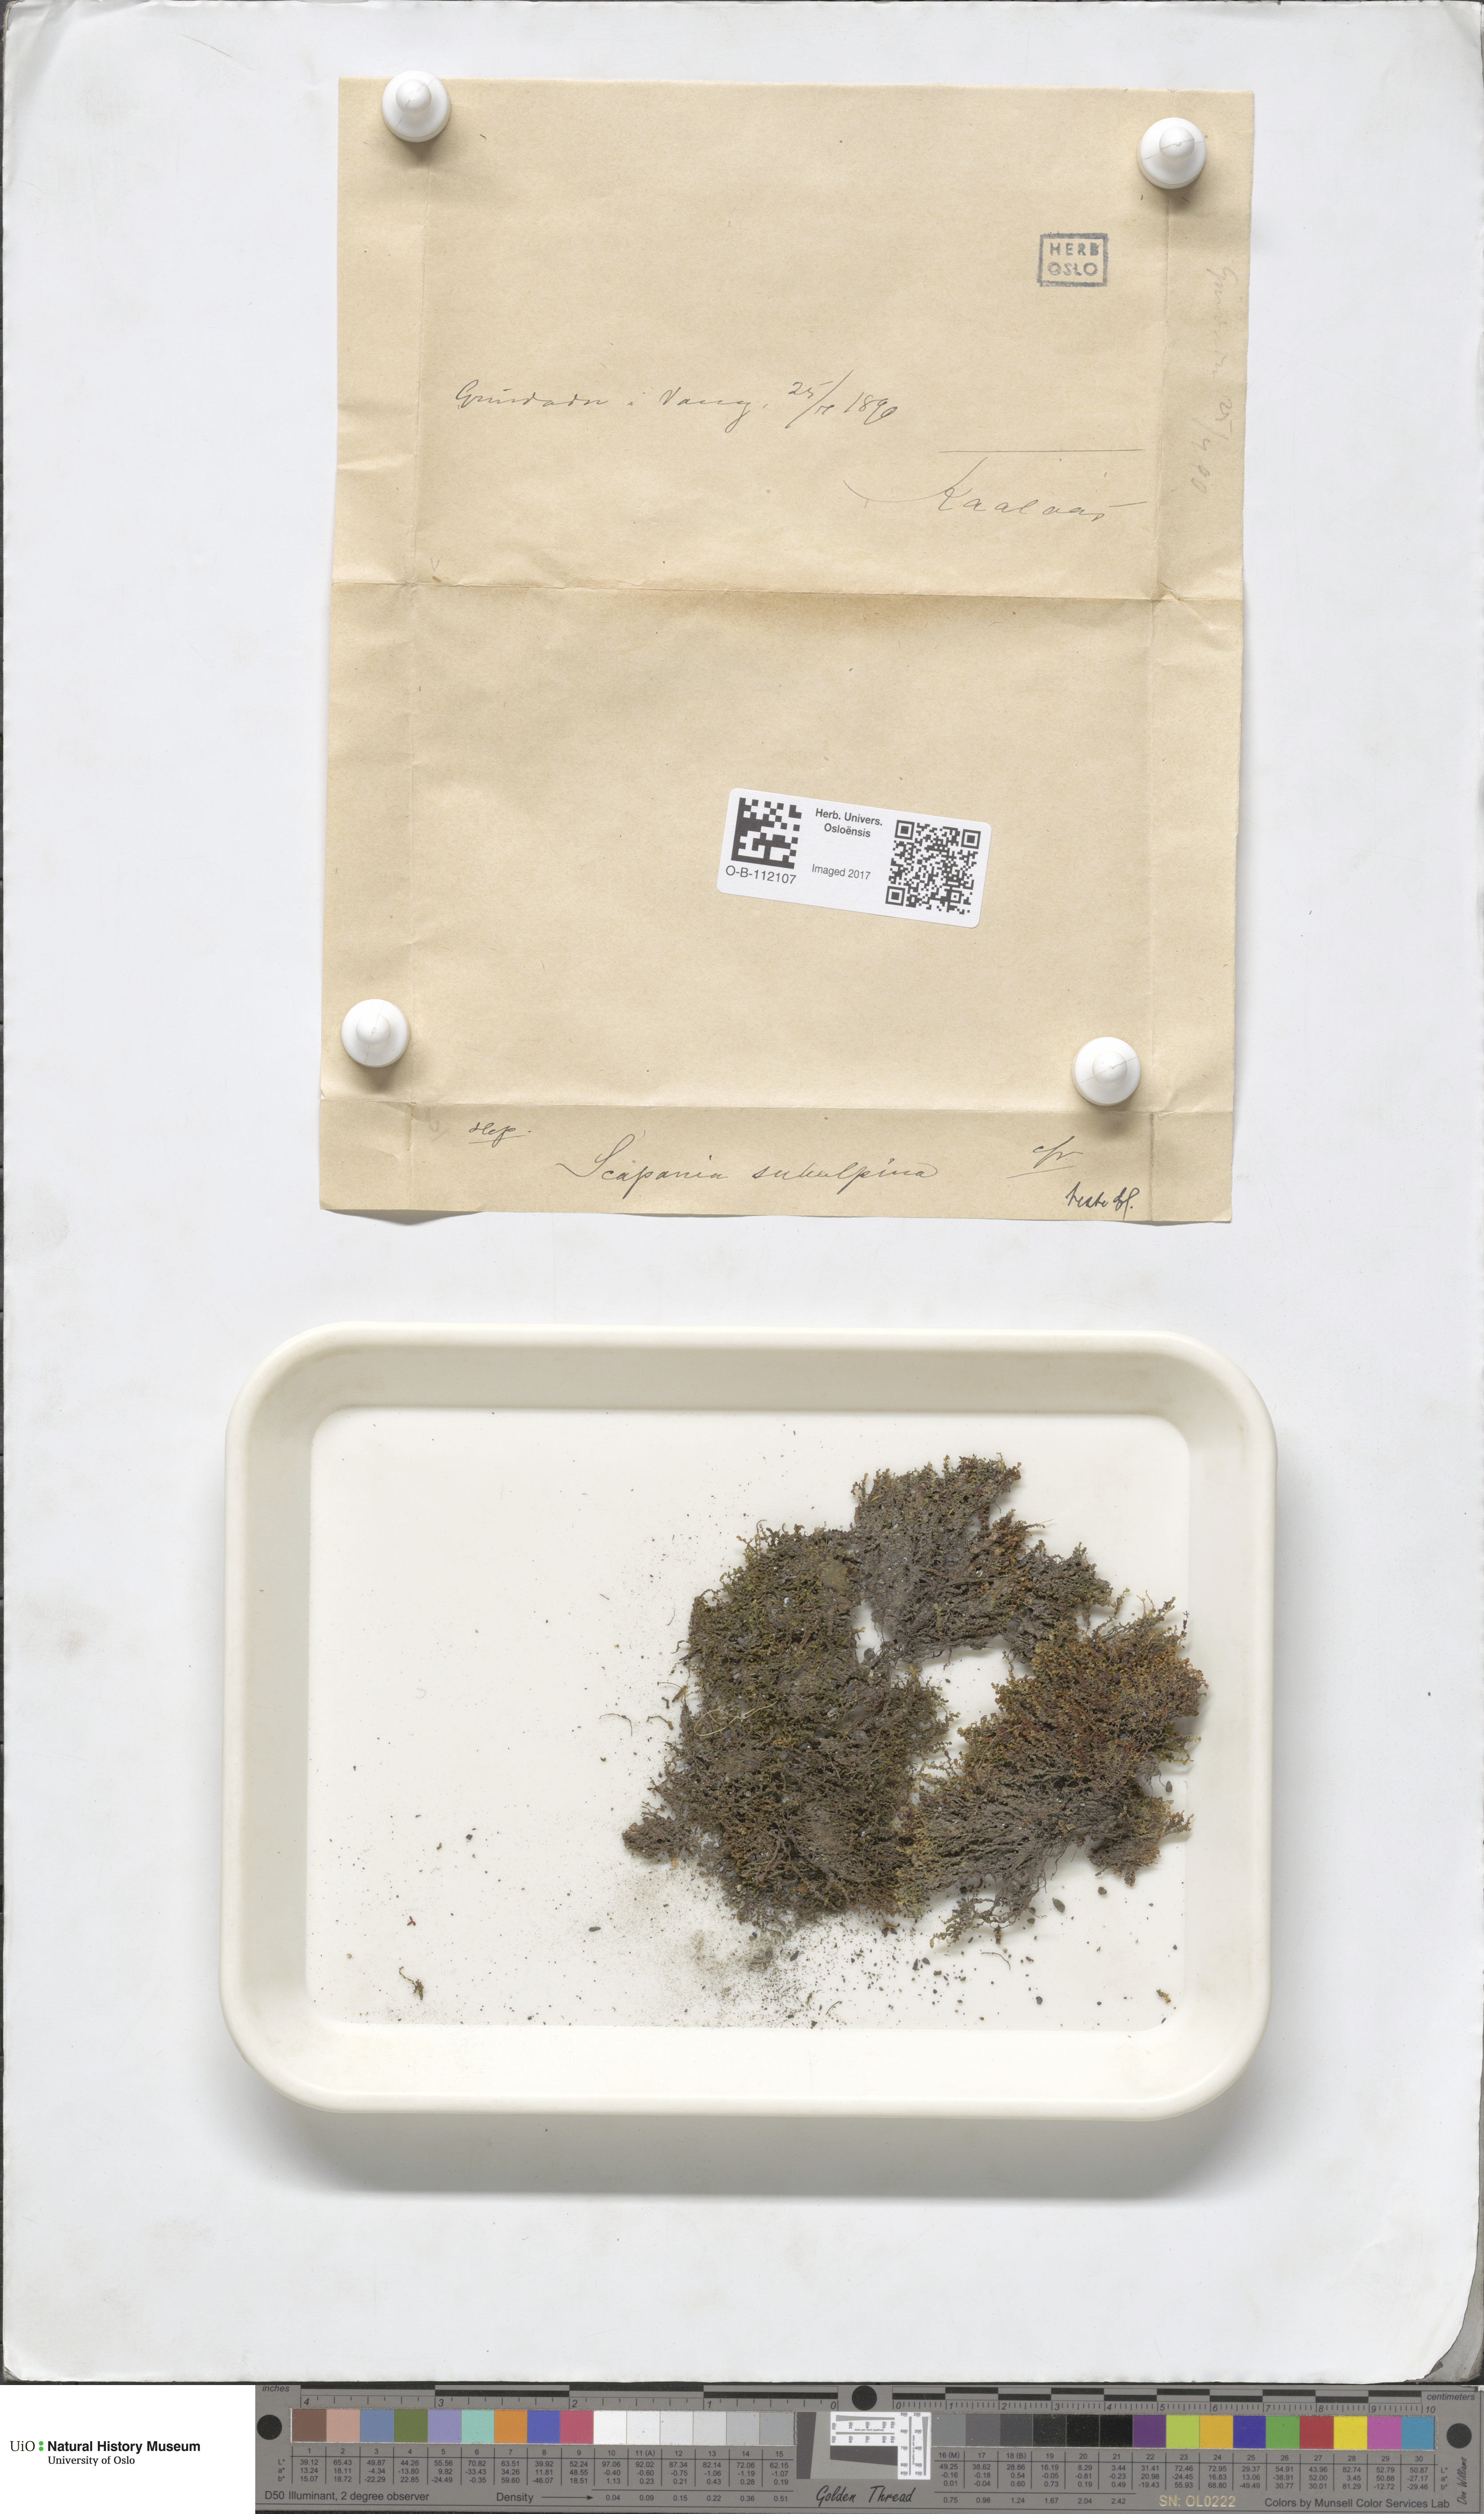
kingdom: Plantae
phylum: Marchantiophyta
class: Jungermanniopsida
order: Jungermanniales
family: Scapaniaceae
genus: Scapania
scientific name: Scapania subalpina
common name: Subalpine earwort
